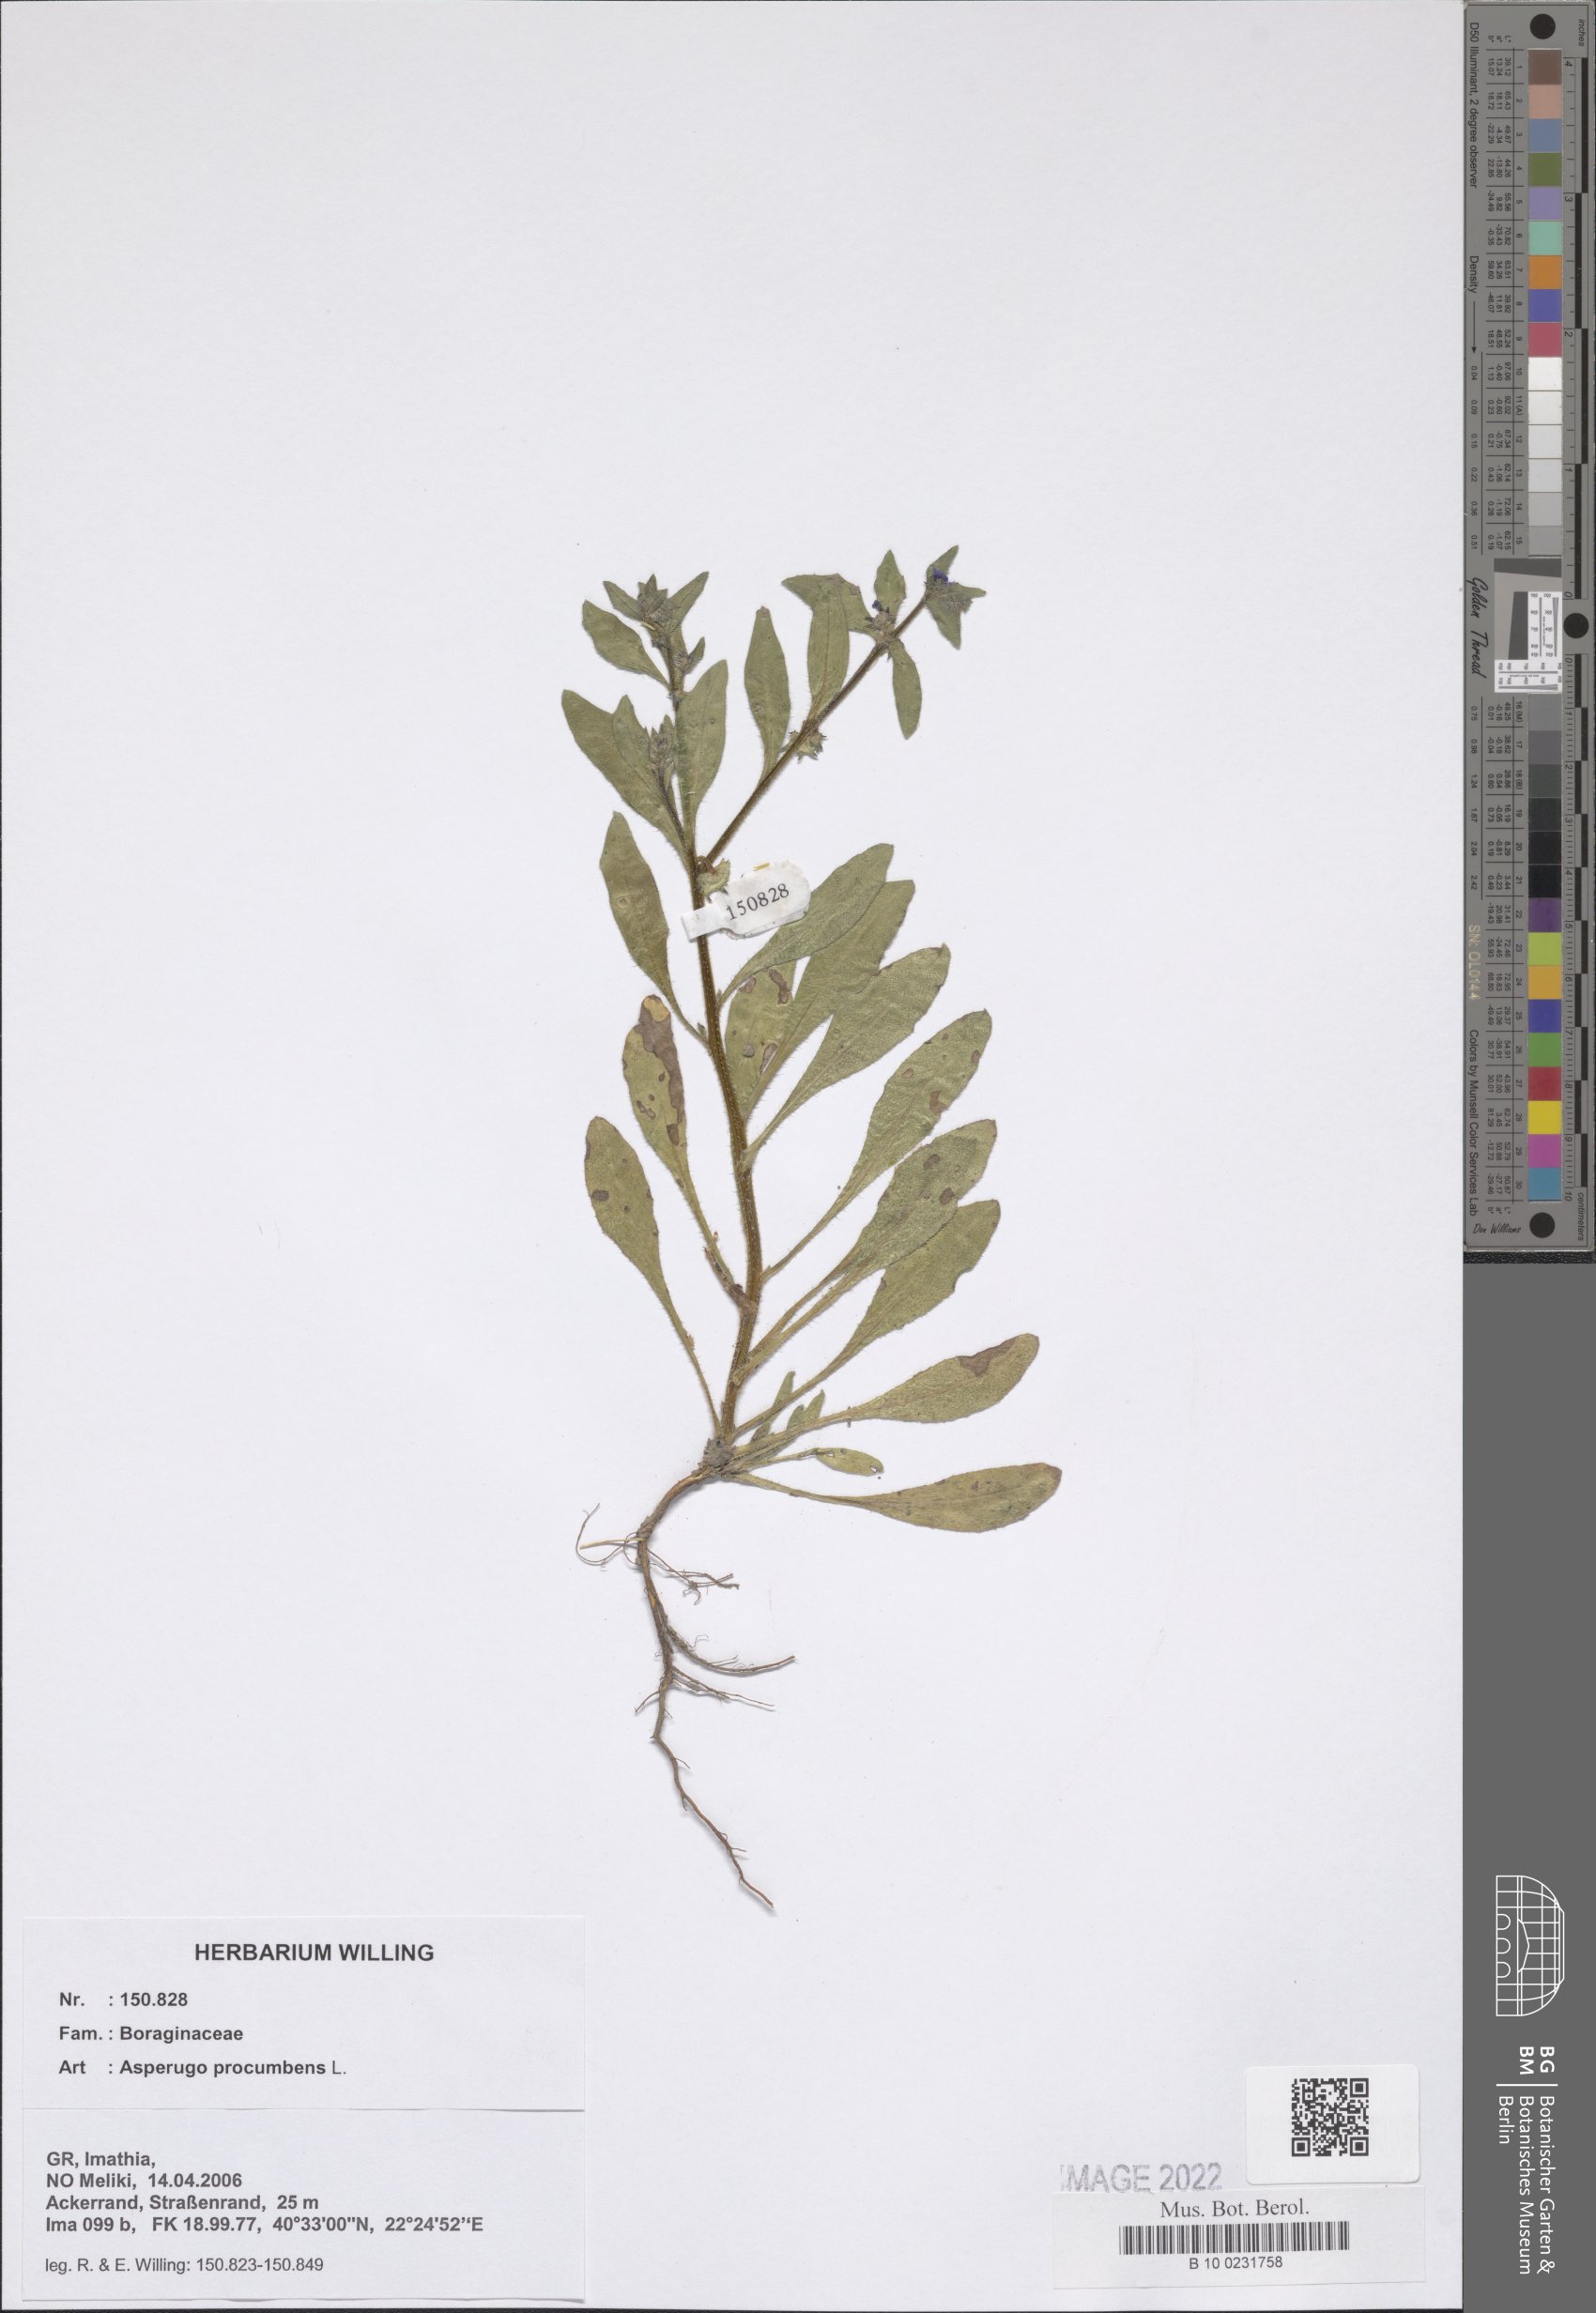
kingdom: Plantae
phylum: Tracheophyta
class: Magnoliopsida
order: Boraginales
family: Boraginaceae
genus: Asperugo
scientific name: Asperugo procumbens
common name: Madwort
